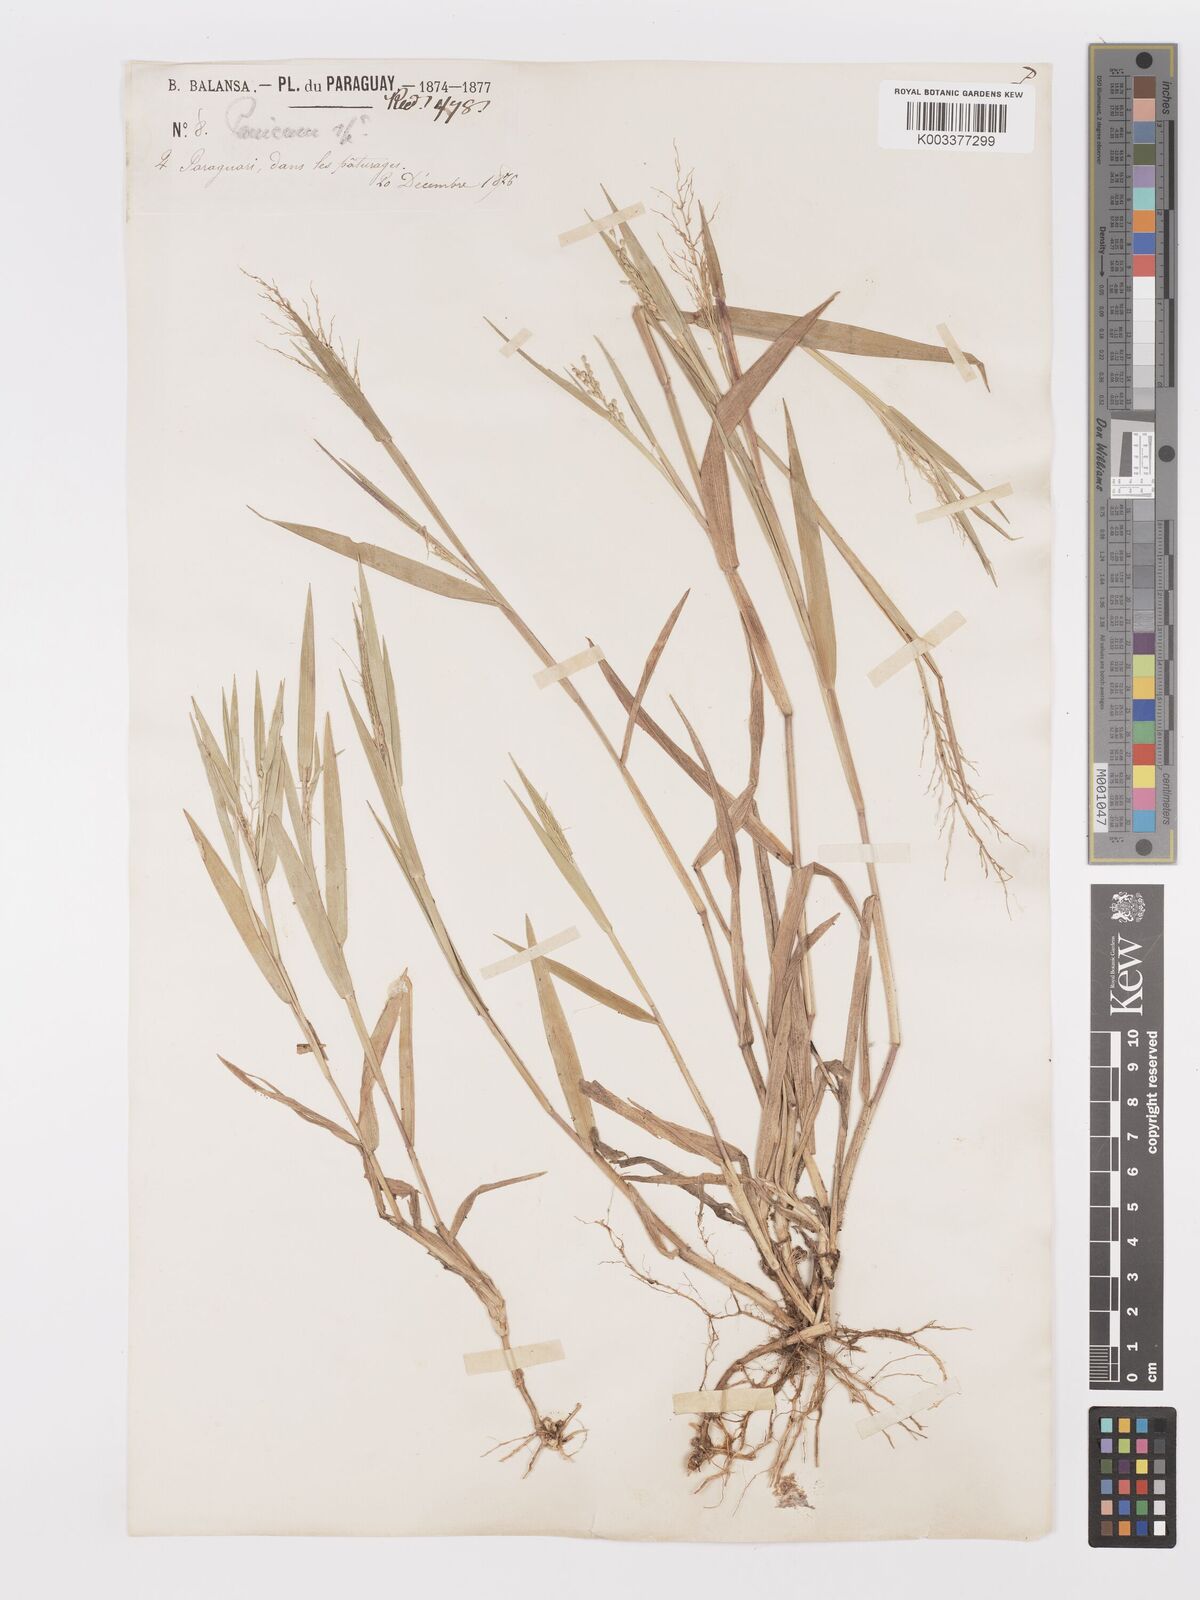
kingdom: Plantae
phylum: Tracheophyta
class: Liliopsida
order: Poales
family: Poaceae
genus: Dichanthelium
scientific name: Dichanthelium sabulorum
